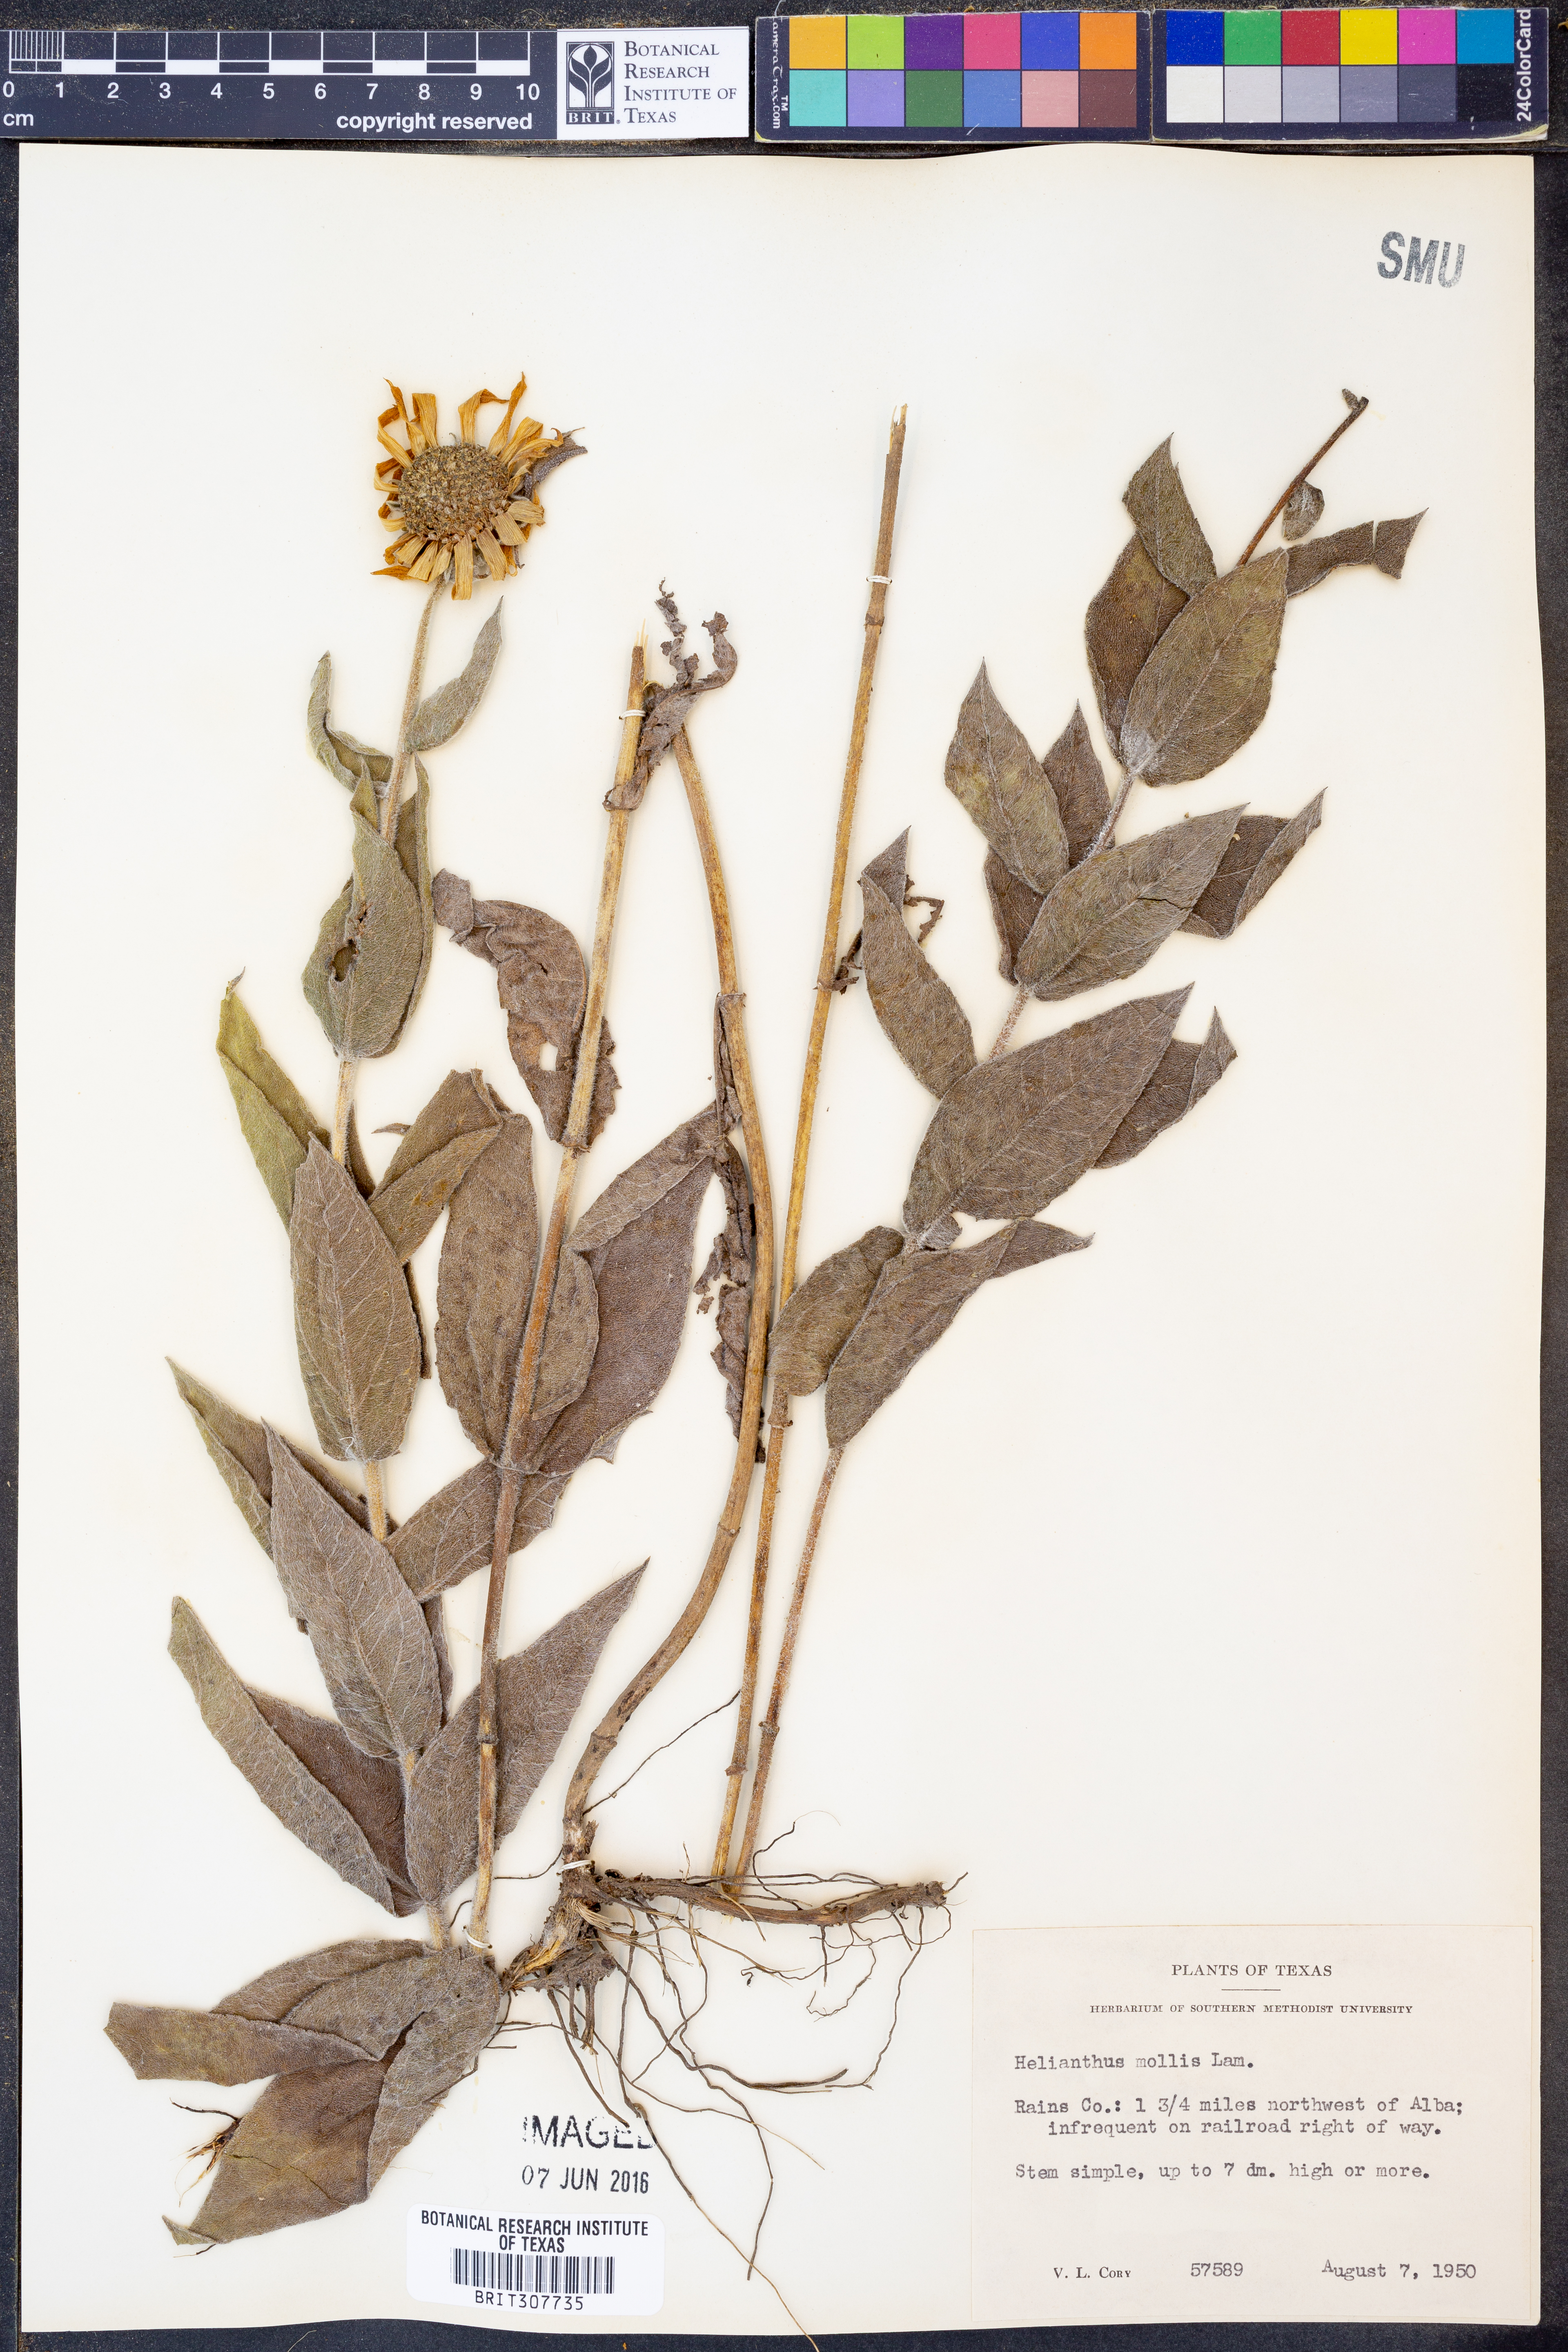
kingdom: Plantae
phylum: Tracheophyta
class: Magnoliopsida
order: Asterales
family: Asteraceae
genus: Helianthus
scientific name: Helianthus mollis
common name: Ashy sunflower
